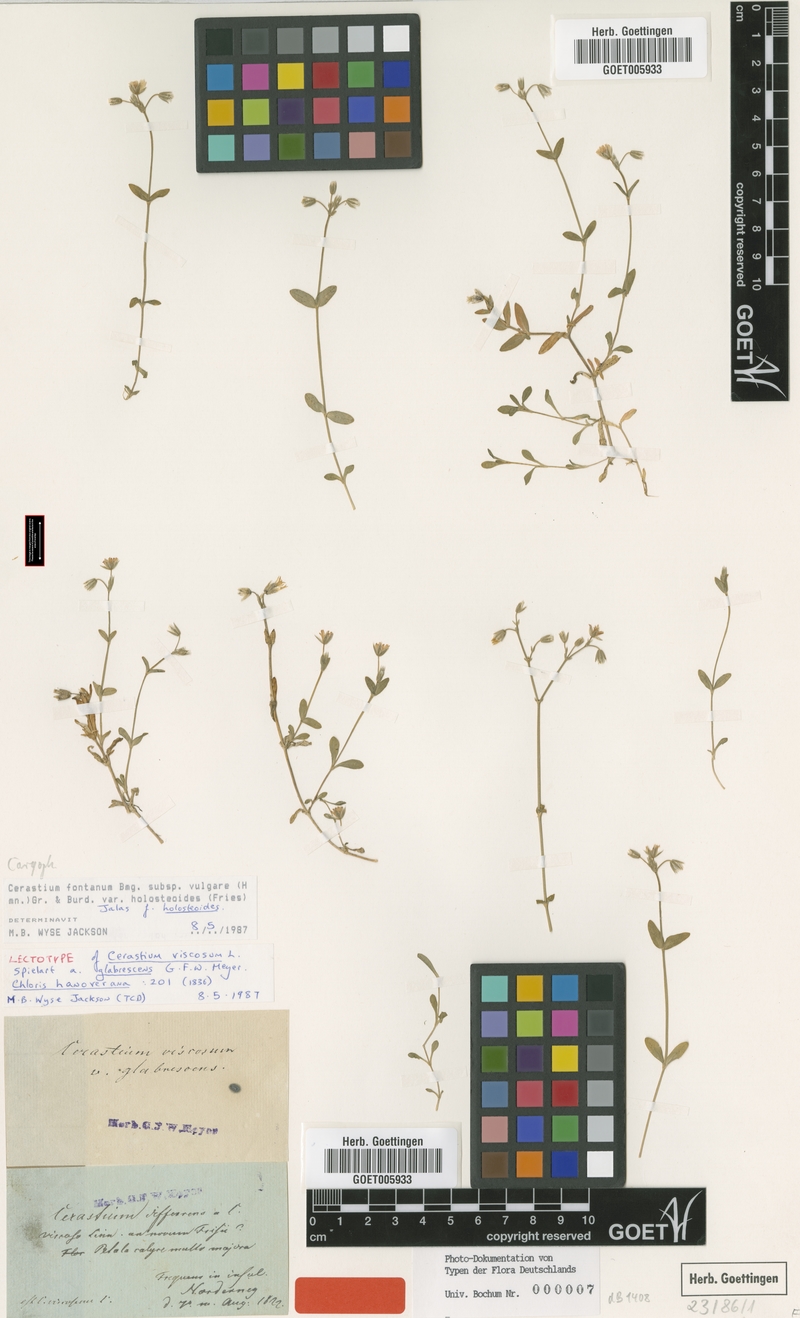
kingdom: Plantae
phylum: Tracheophyta
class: Magnoliopsida
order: Caryophyllales
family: Caryophyllaceae
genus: Cerastium
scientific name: Cerastium holosteoides
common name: Big chickweed
